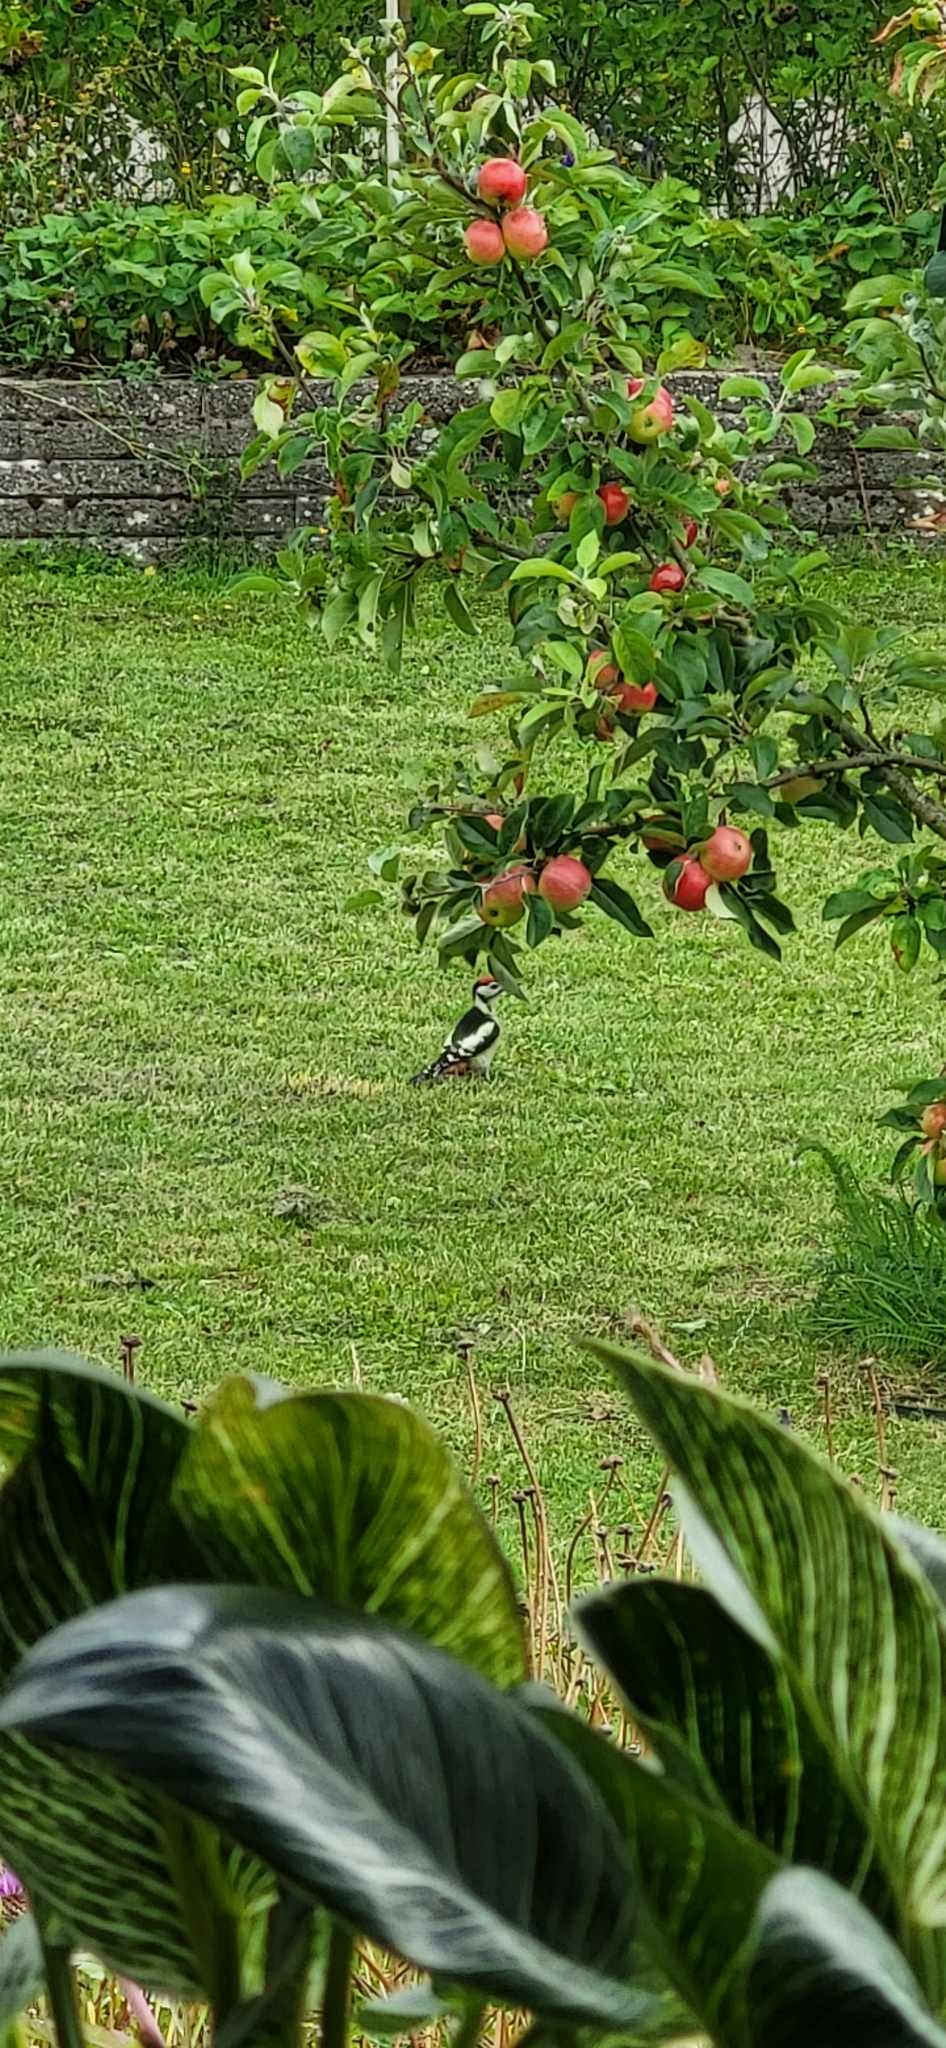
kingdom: Animalia
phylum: Chordata
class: Aves
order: Piciformes
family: Picidae
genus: Dendrocopos
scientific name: Dendrocopos major
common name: Stor flagspætte
